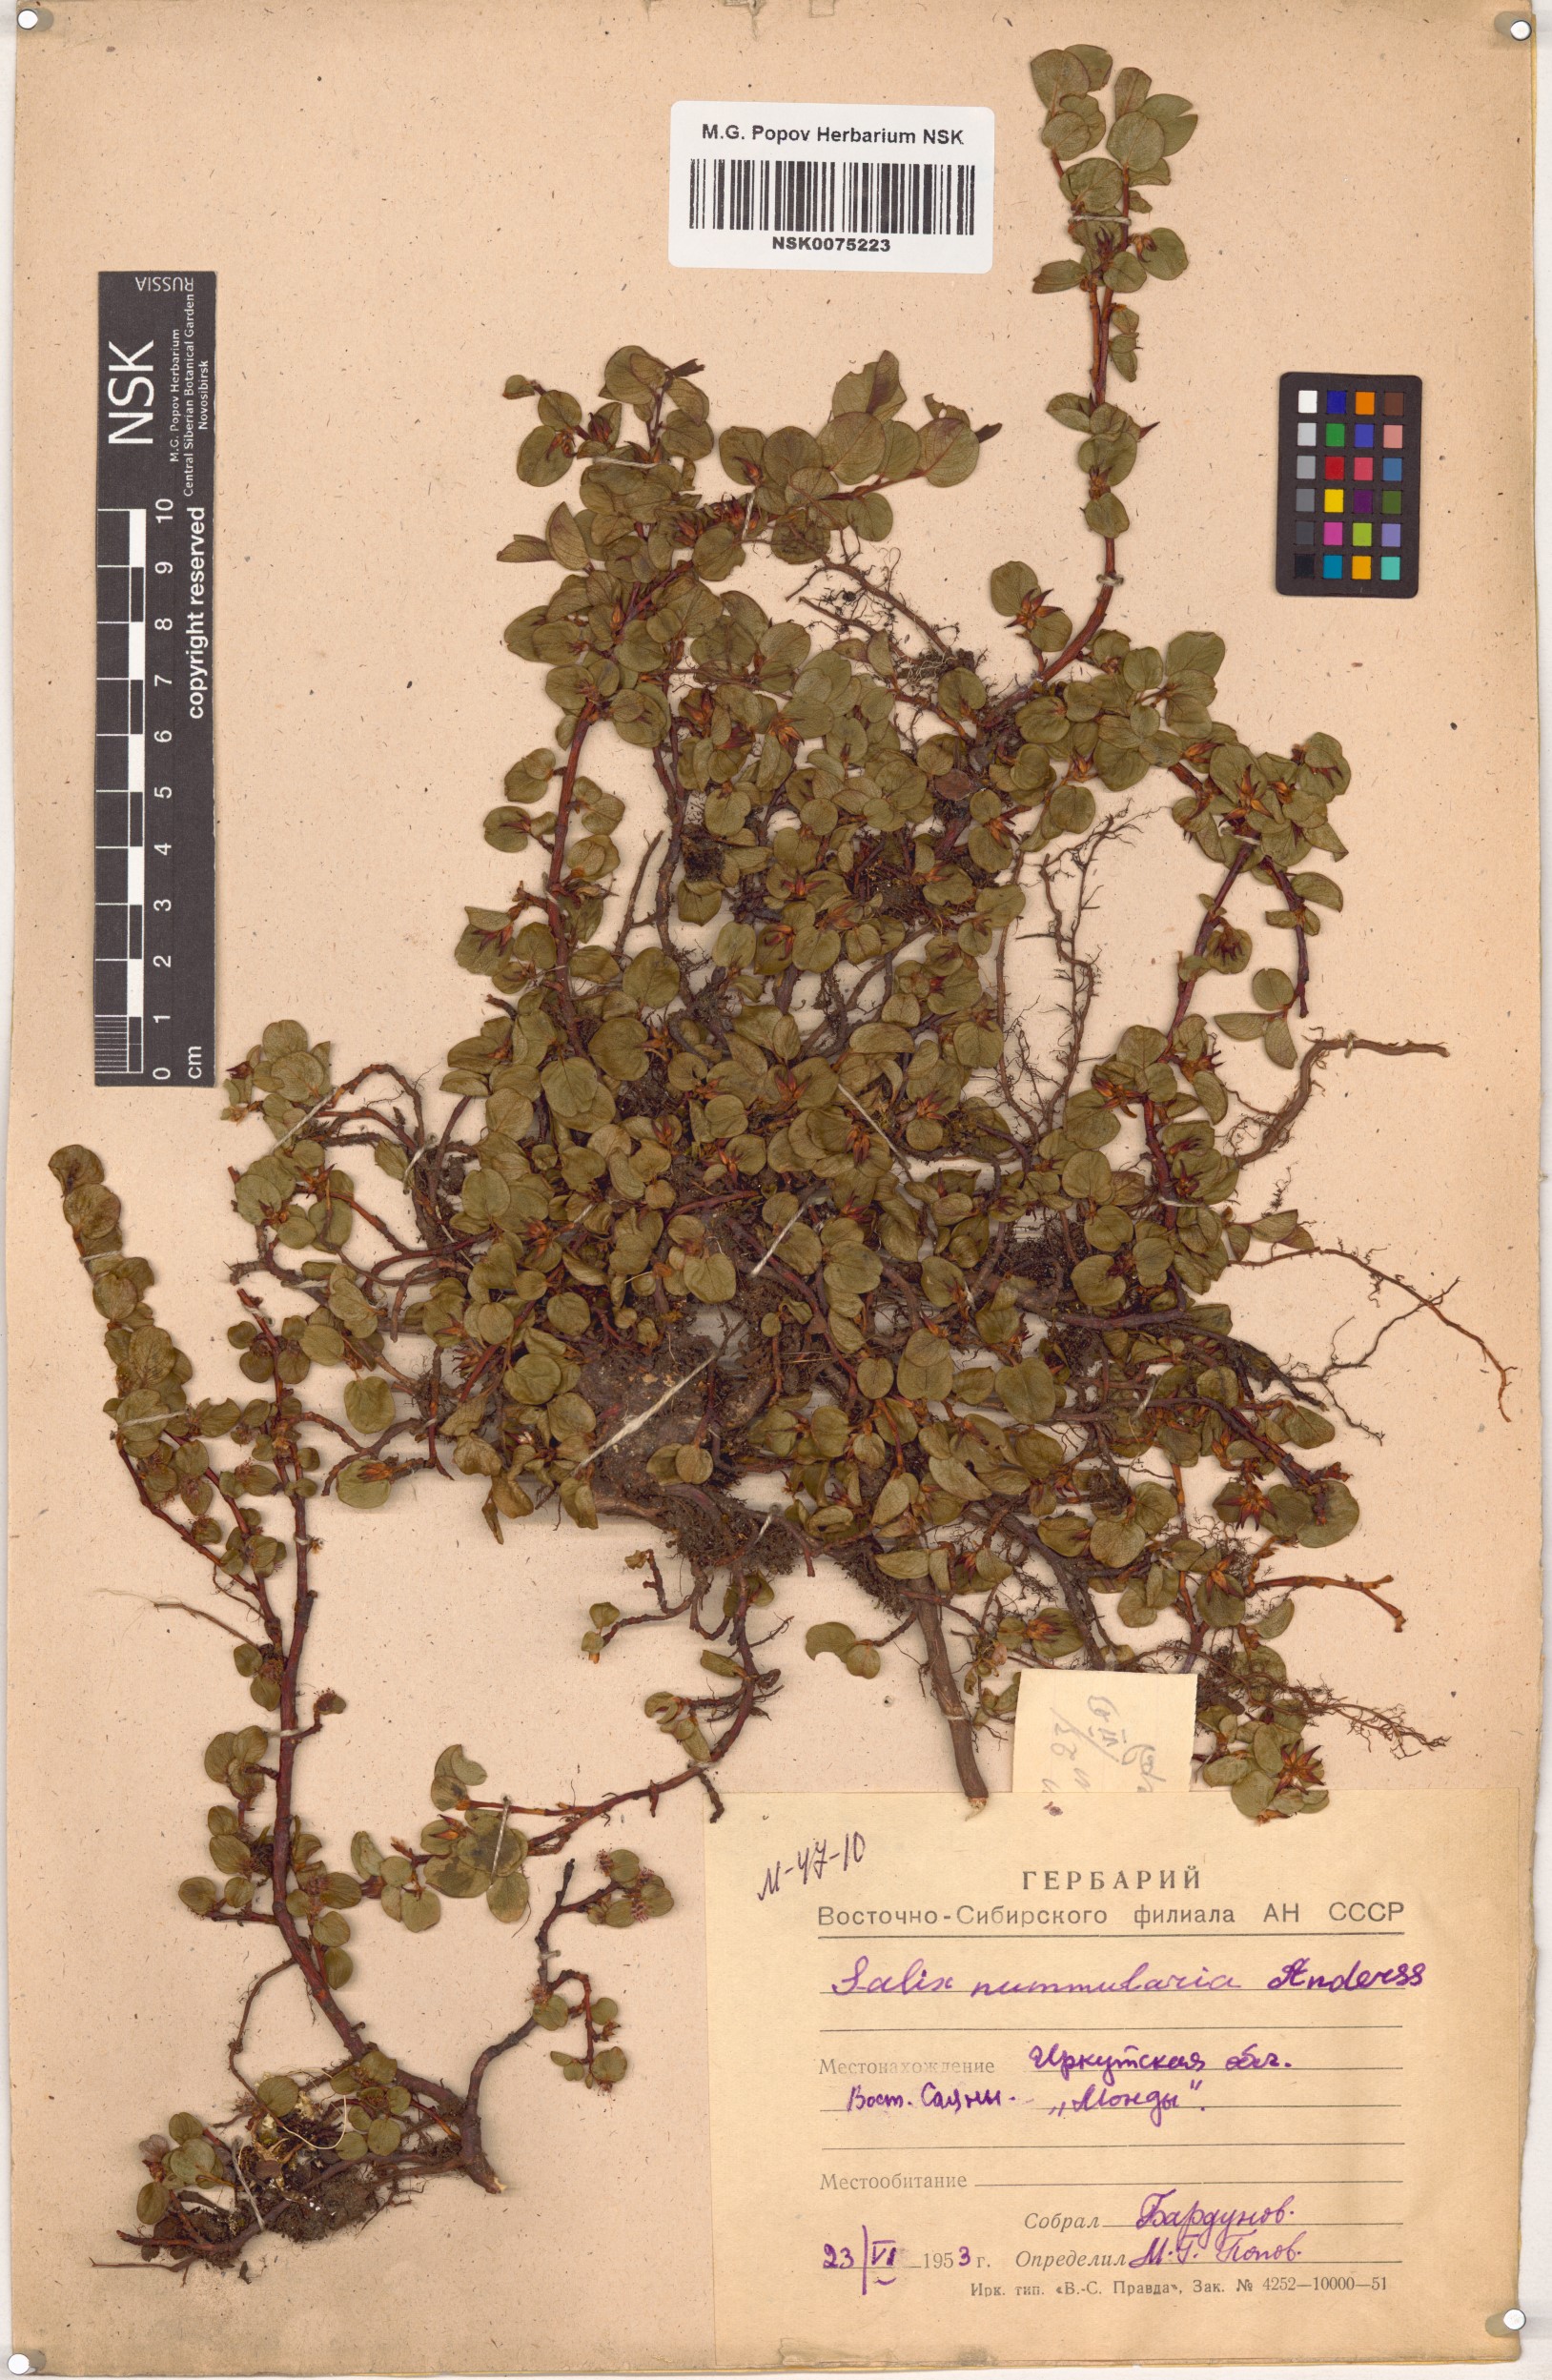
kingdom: Plantae
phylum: Tracheophyta
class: Magnoliopsida
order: Malpighiales
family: Salicaceae
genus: Salix
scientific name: Salix nummularia
